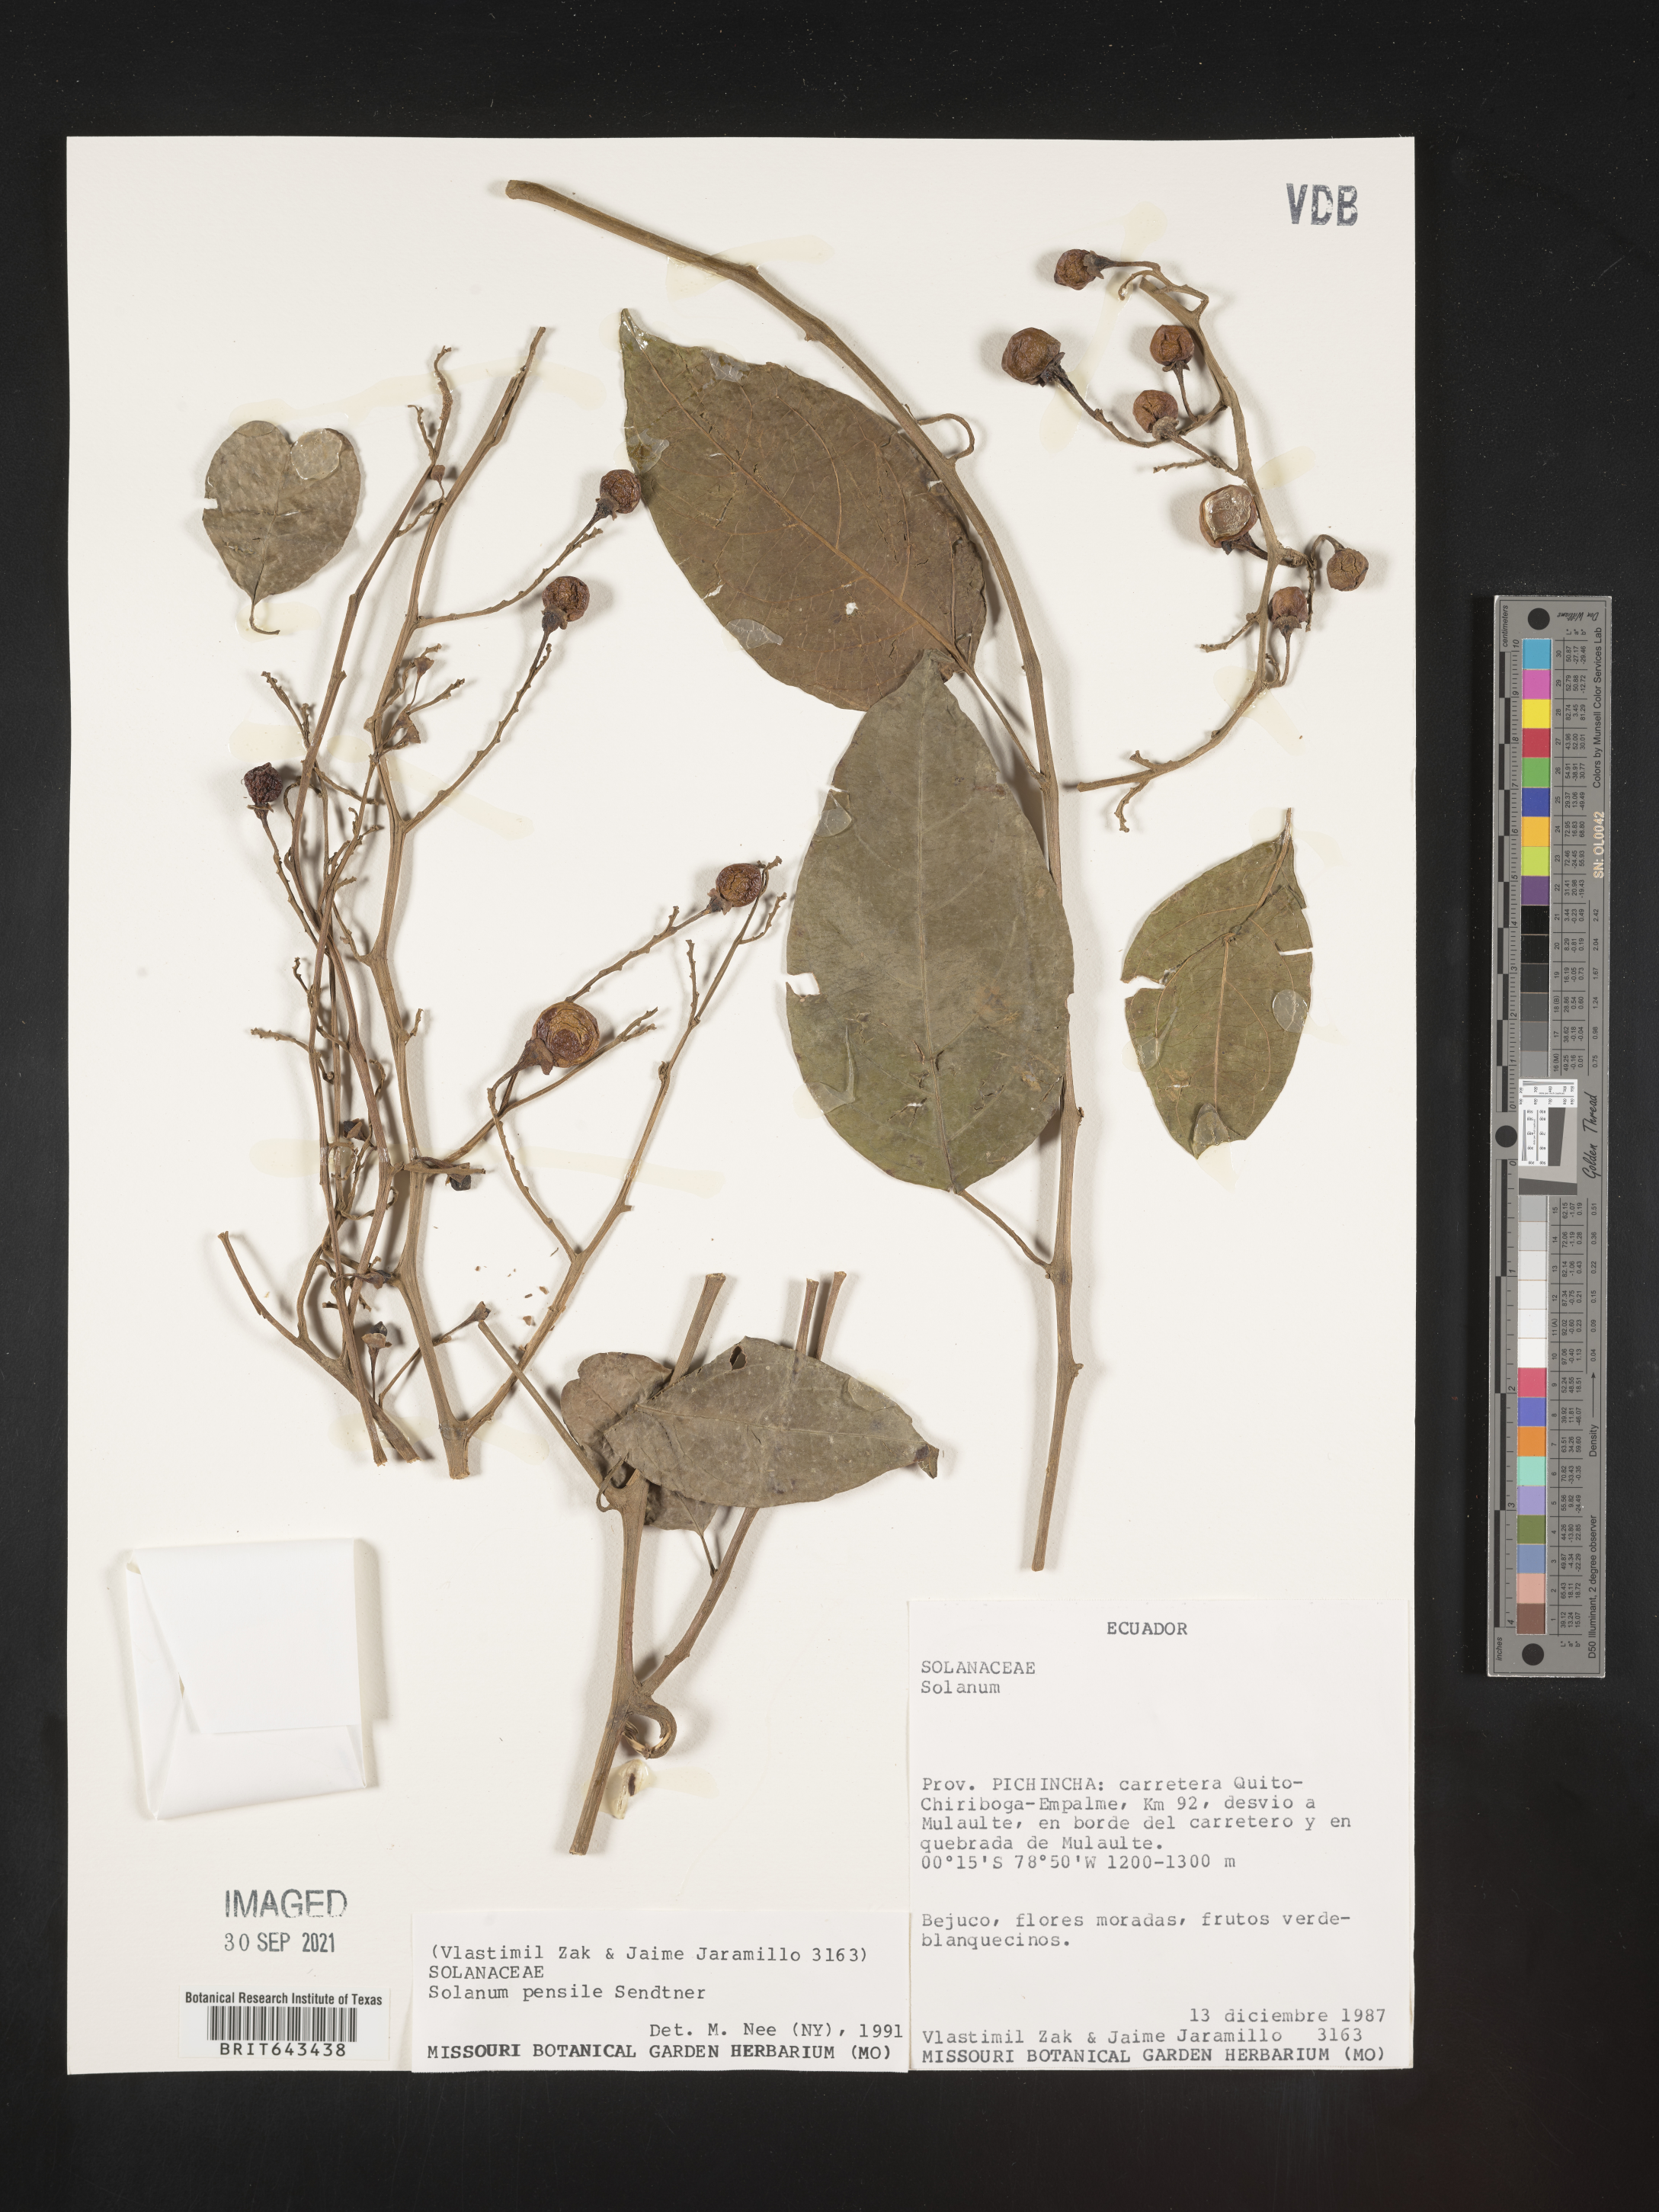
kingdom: Plantae
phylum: Tracheophyta
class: Magnoliopsida
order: Solanales
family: Solanaceae
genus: Solanum
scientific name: Solanum
